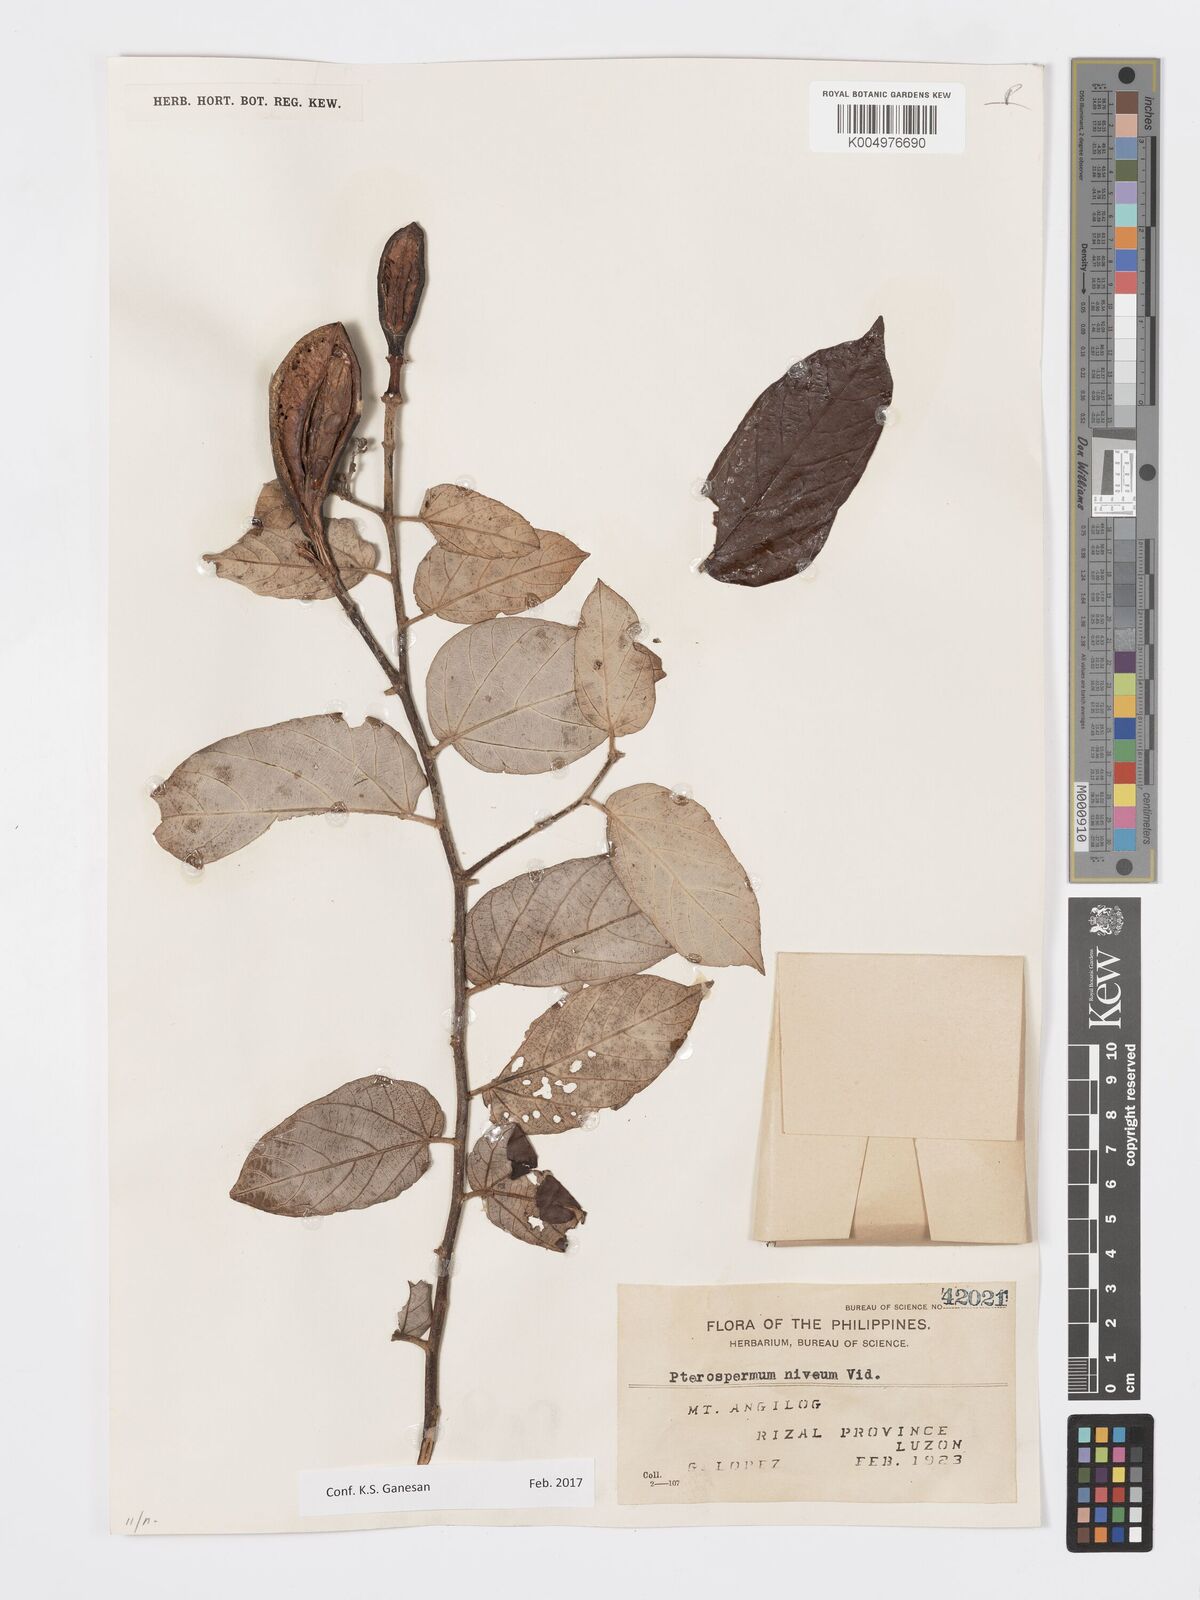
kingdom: Plantae
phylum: Tracheophyta
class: Magnoliopsida
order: Malvales
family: Malvaceae
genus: Pterospermum
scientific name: Pterospermum niveum
